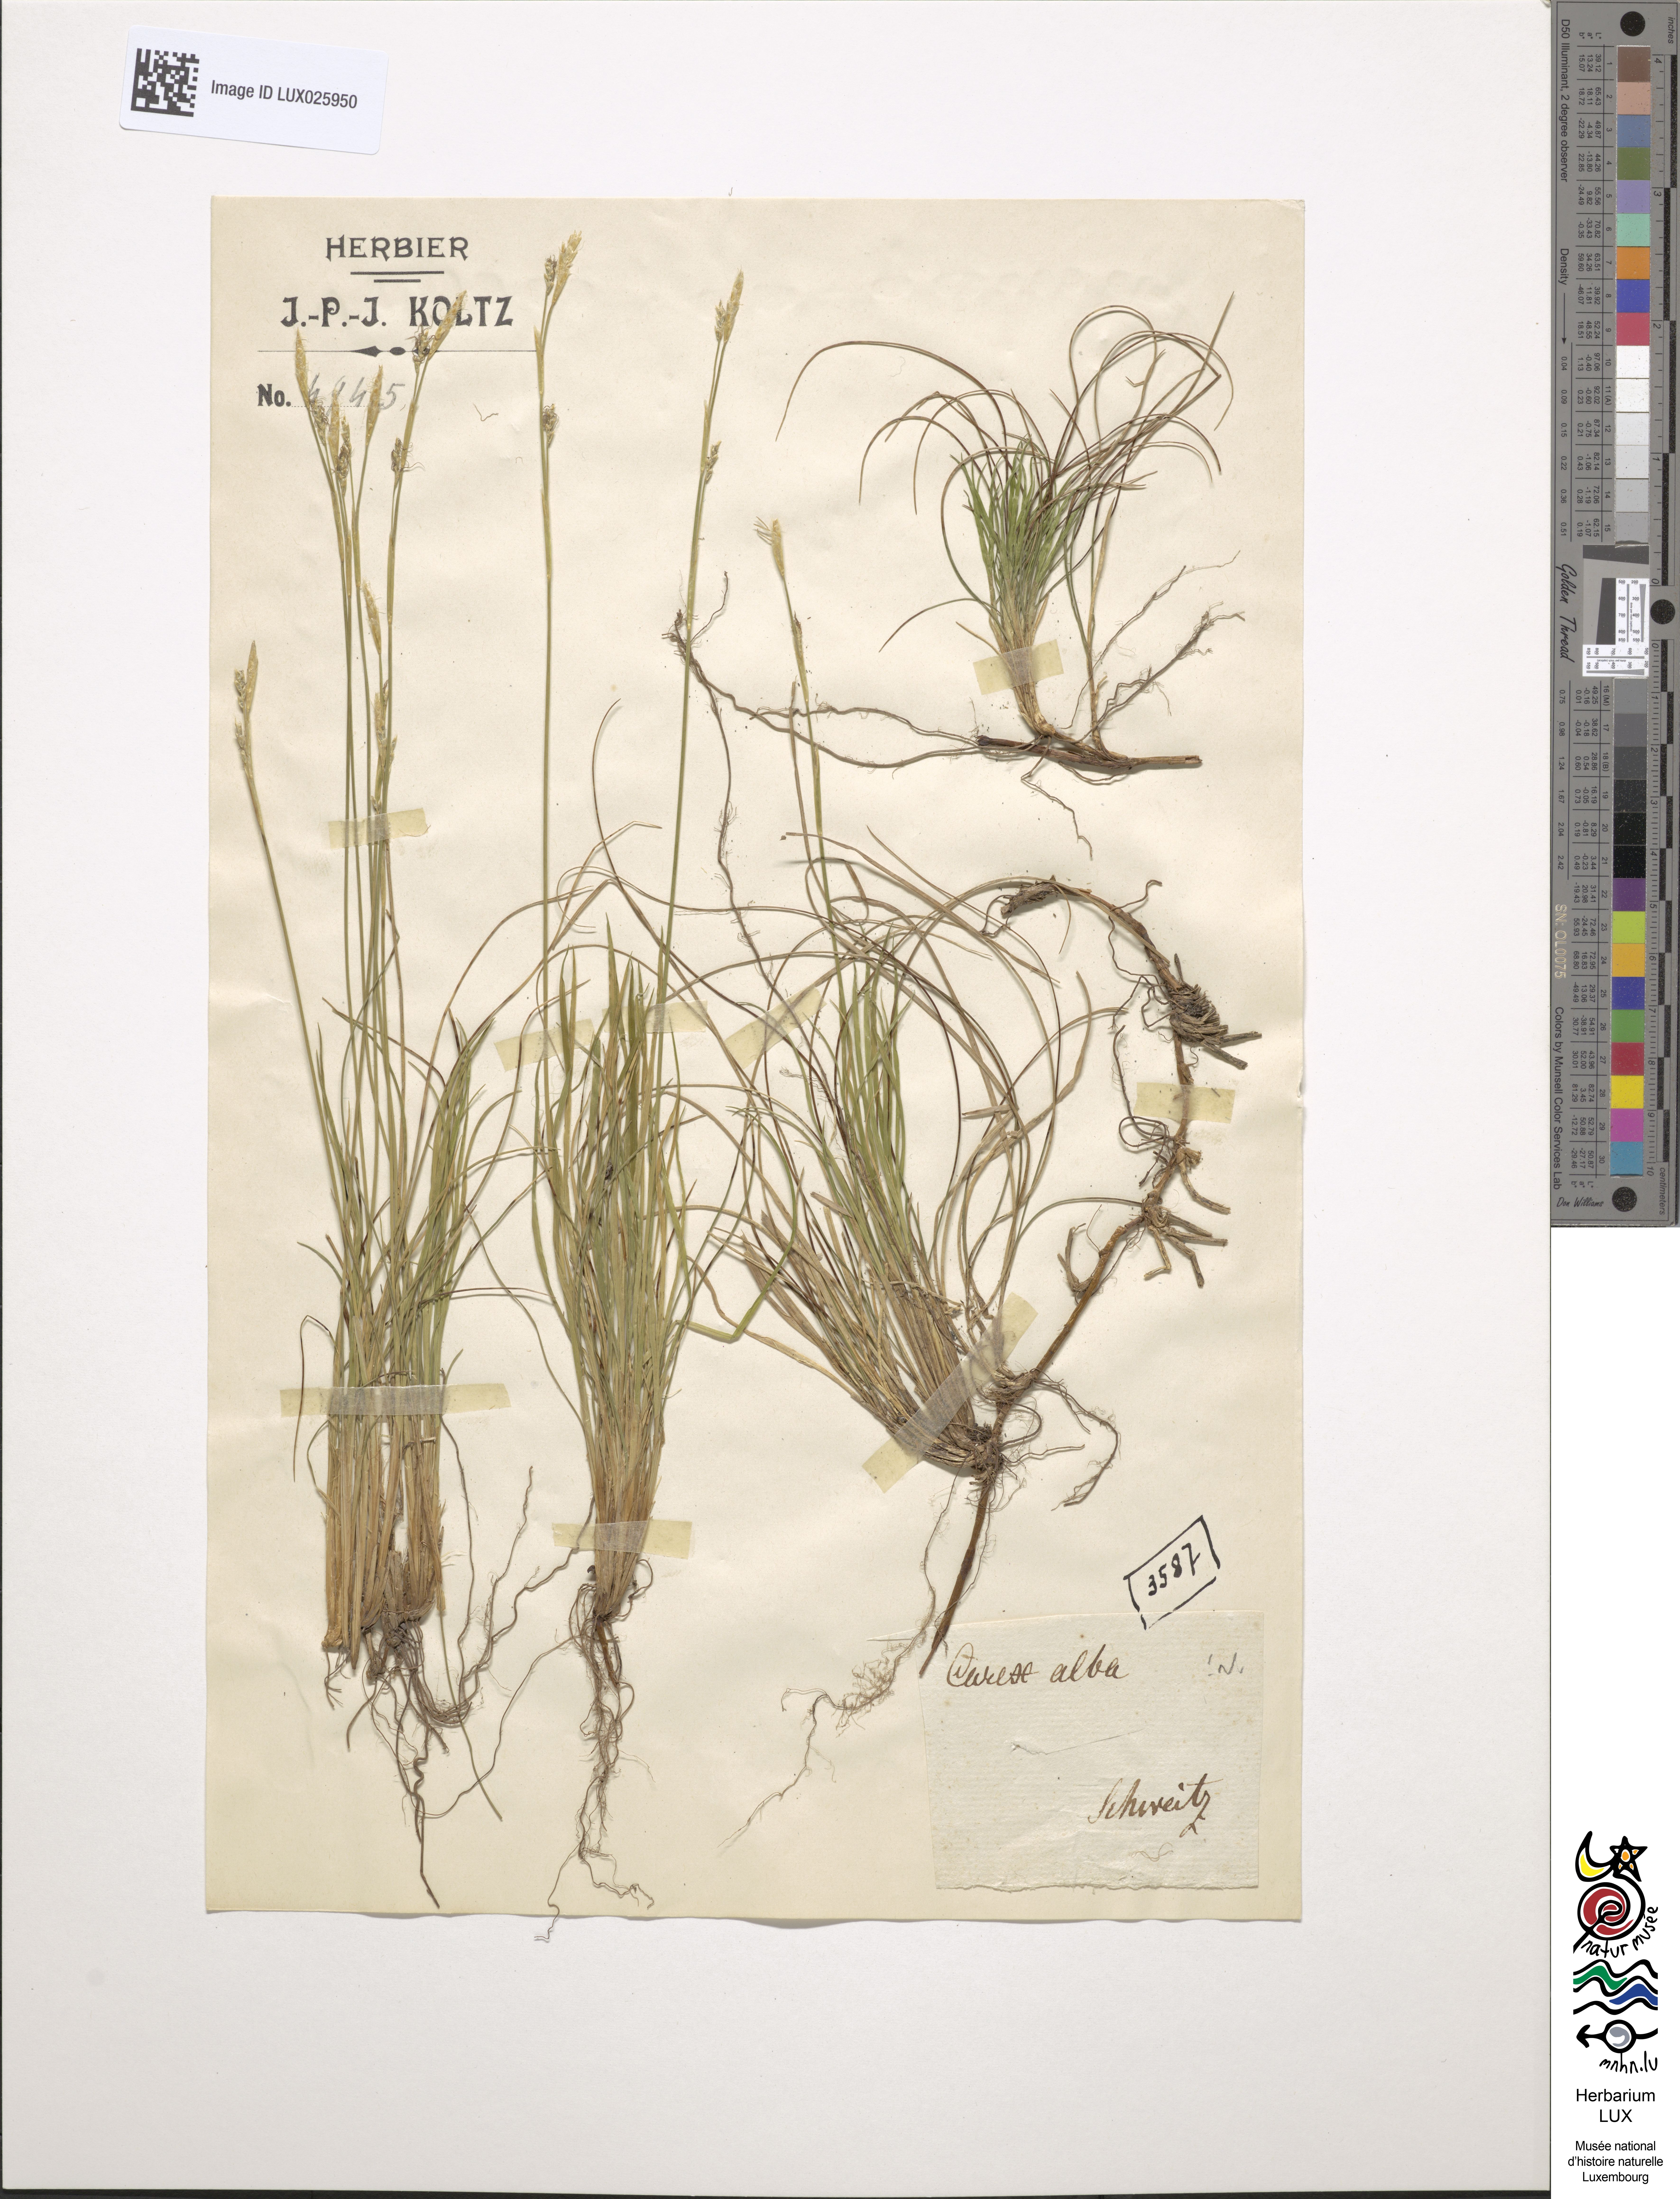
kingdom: Plantae
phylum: Tracheophyta
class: Liliopsida
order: Poales
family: Cyperaceae
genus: Carex
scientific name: Carex alba
